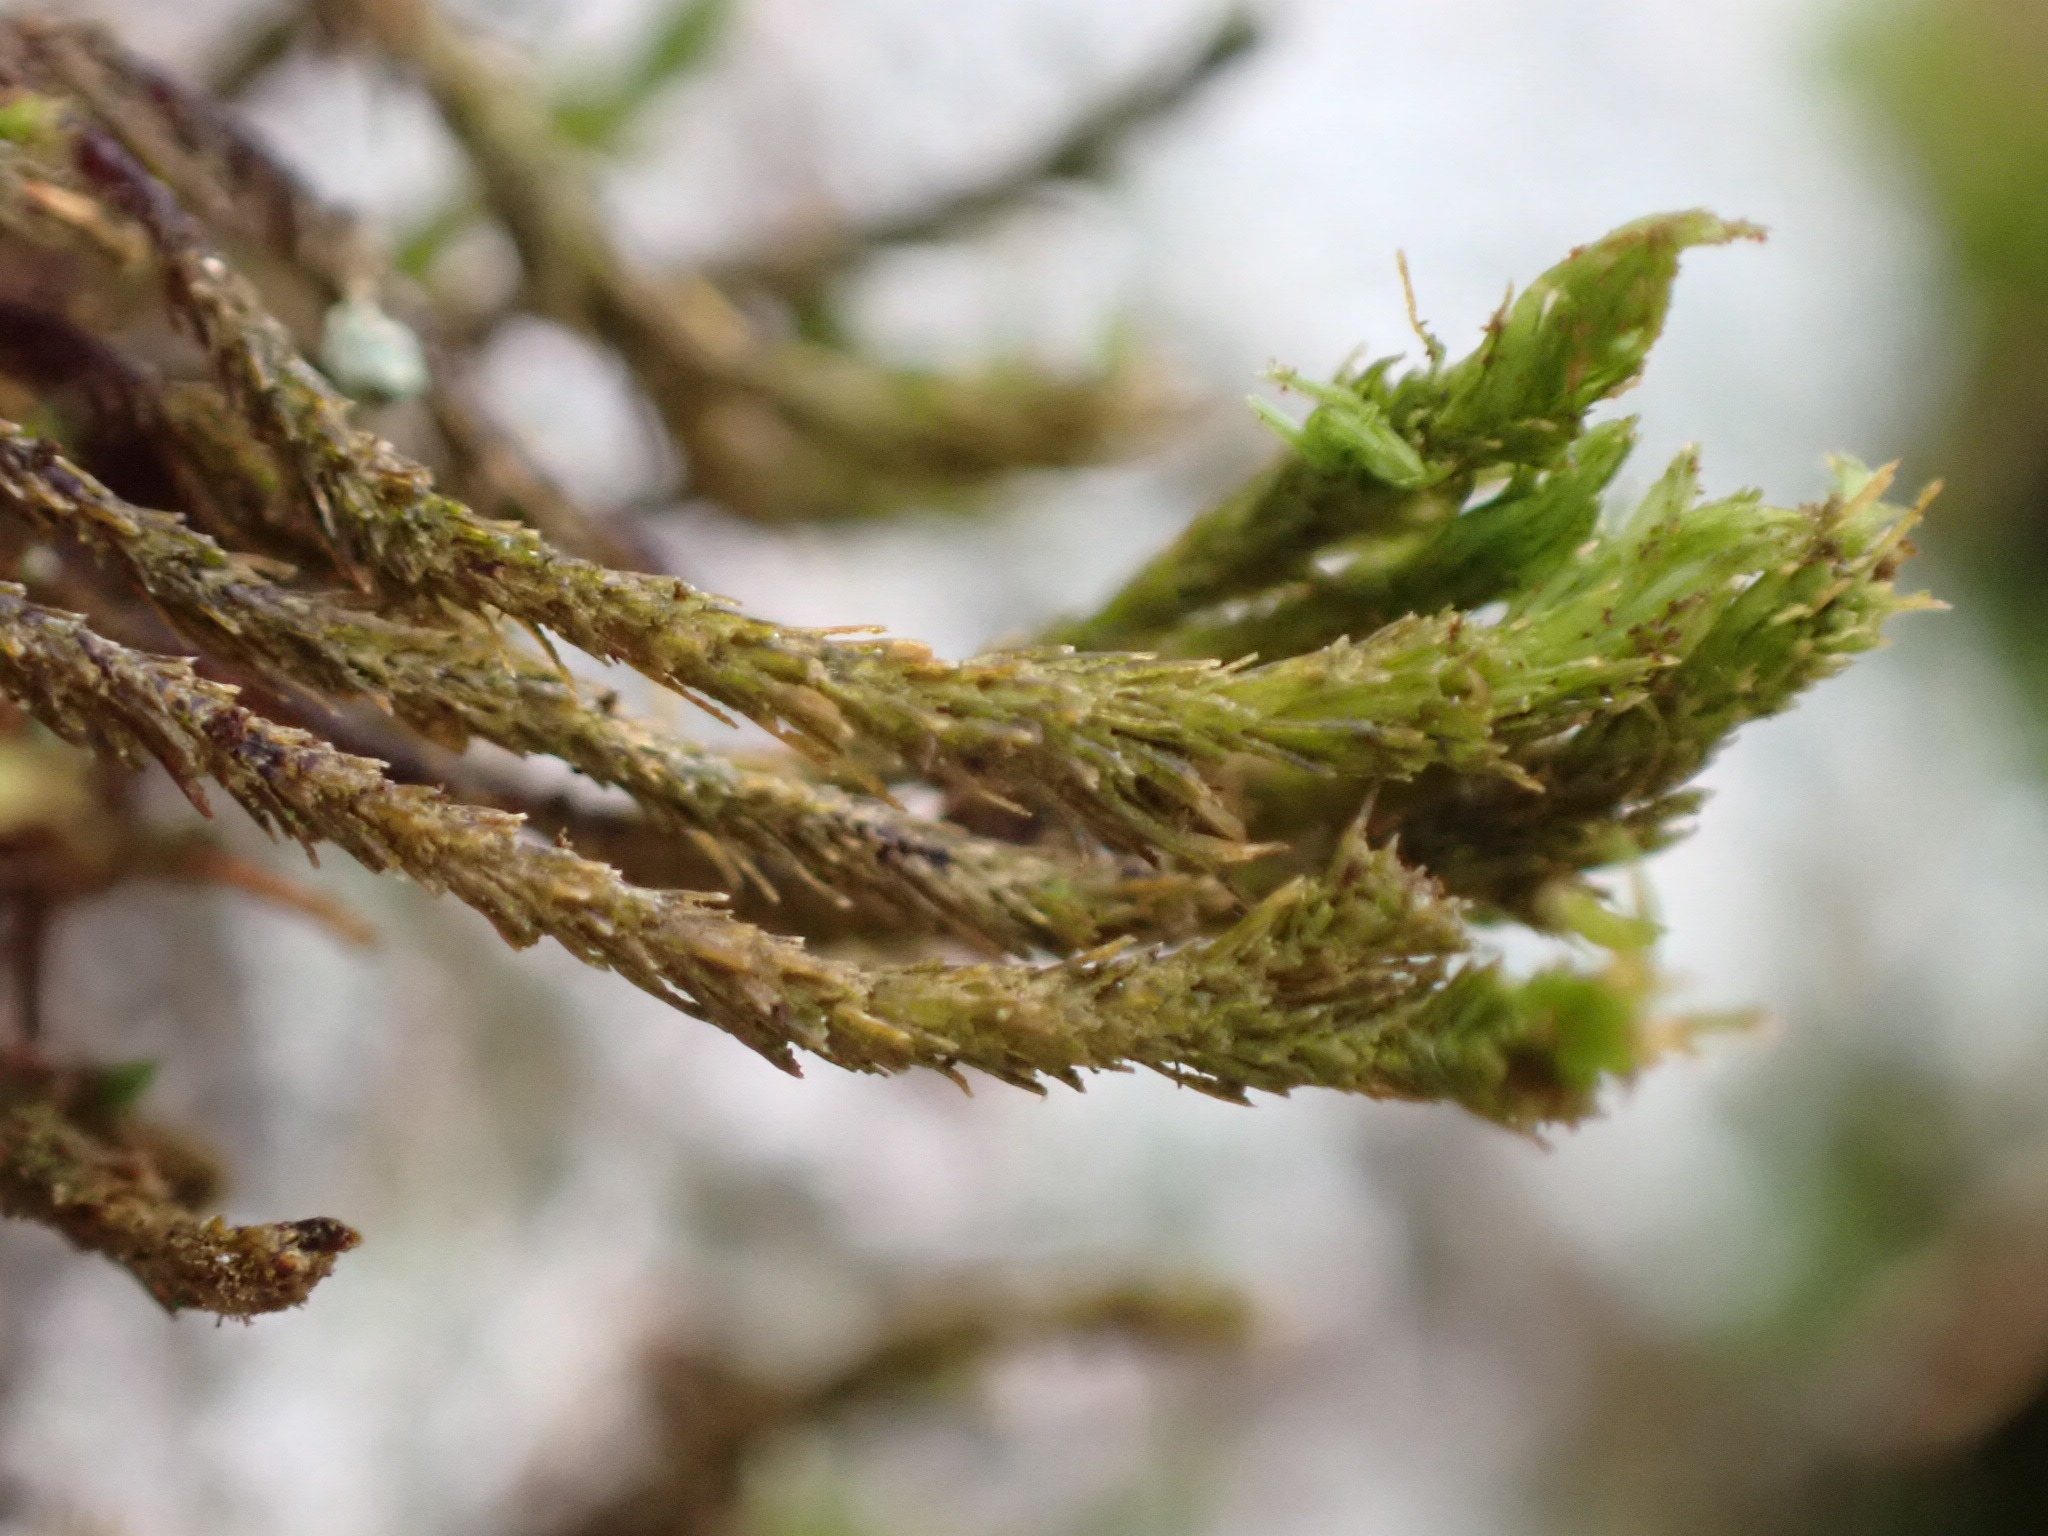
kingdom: Plantae
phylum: Bryophyta
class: Bryopsida
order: Orthotrichales
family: Orthotrichaceae
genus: Pulvigera
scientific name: Pulvigera lyellii
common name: Stor furehætte
